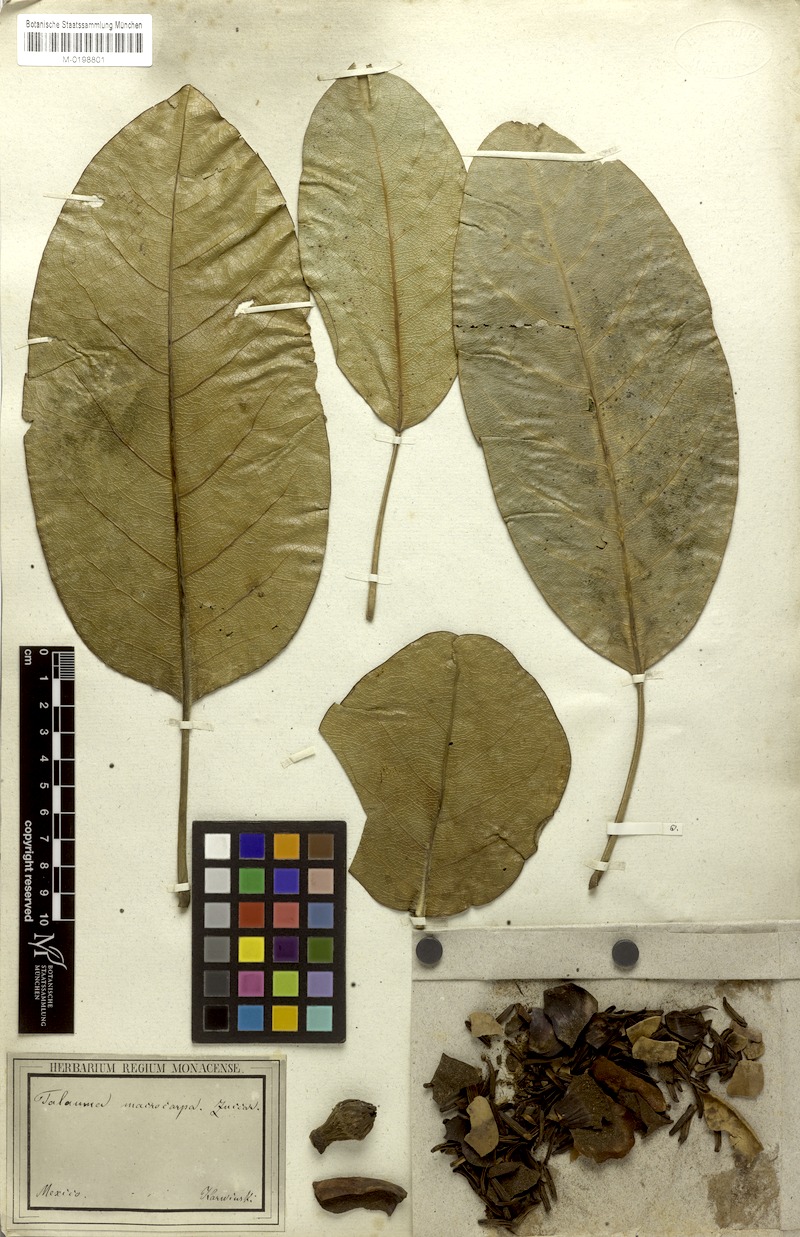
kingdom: Plantae
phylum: Tracheophyta
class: Magnoliopsida
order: Magnoliales
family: Magnoliaceae
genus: Magnolia
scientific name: Magnolia mexicana
